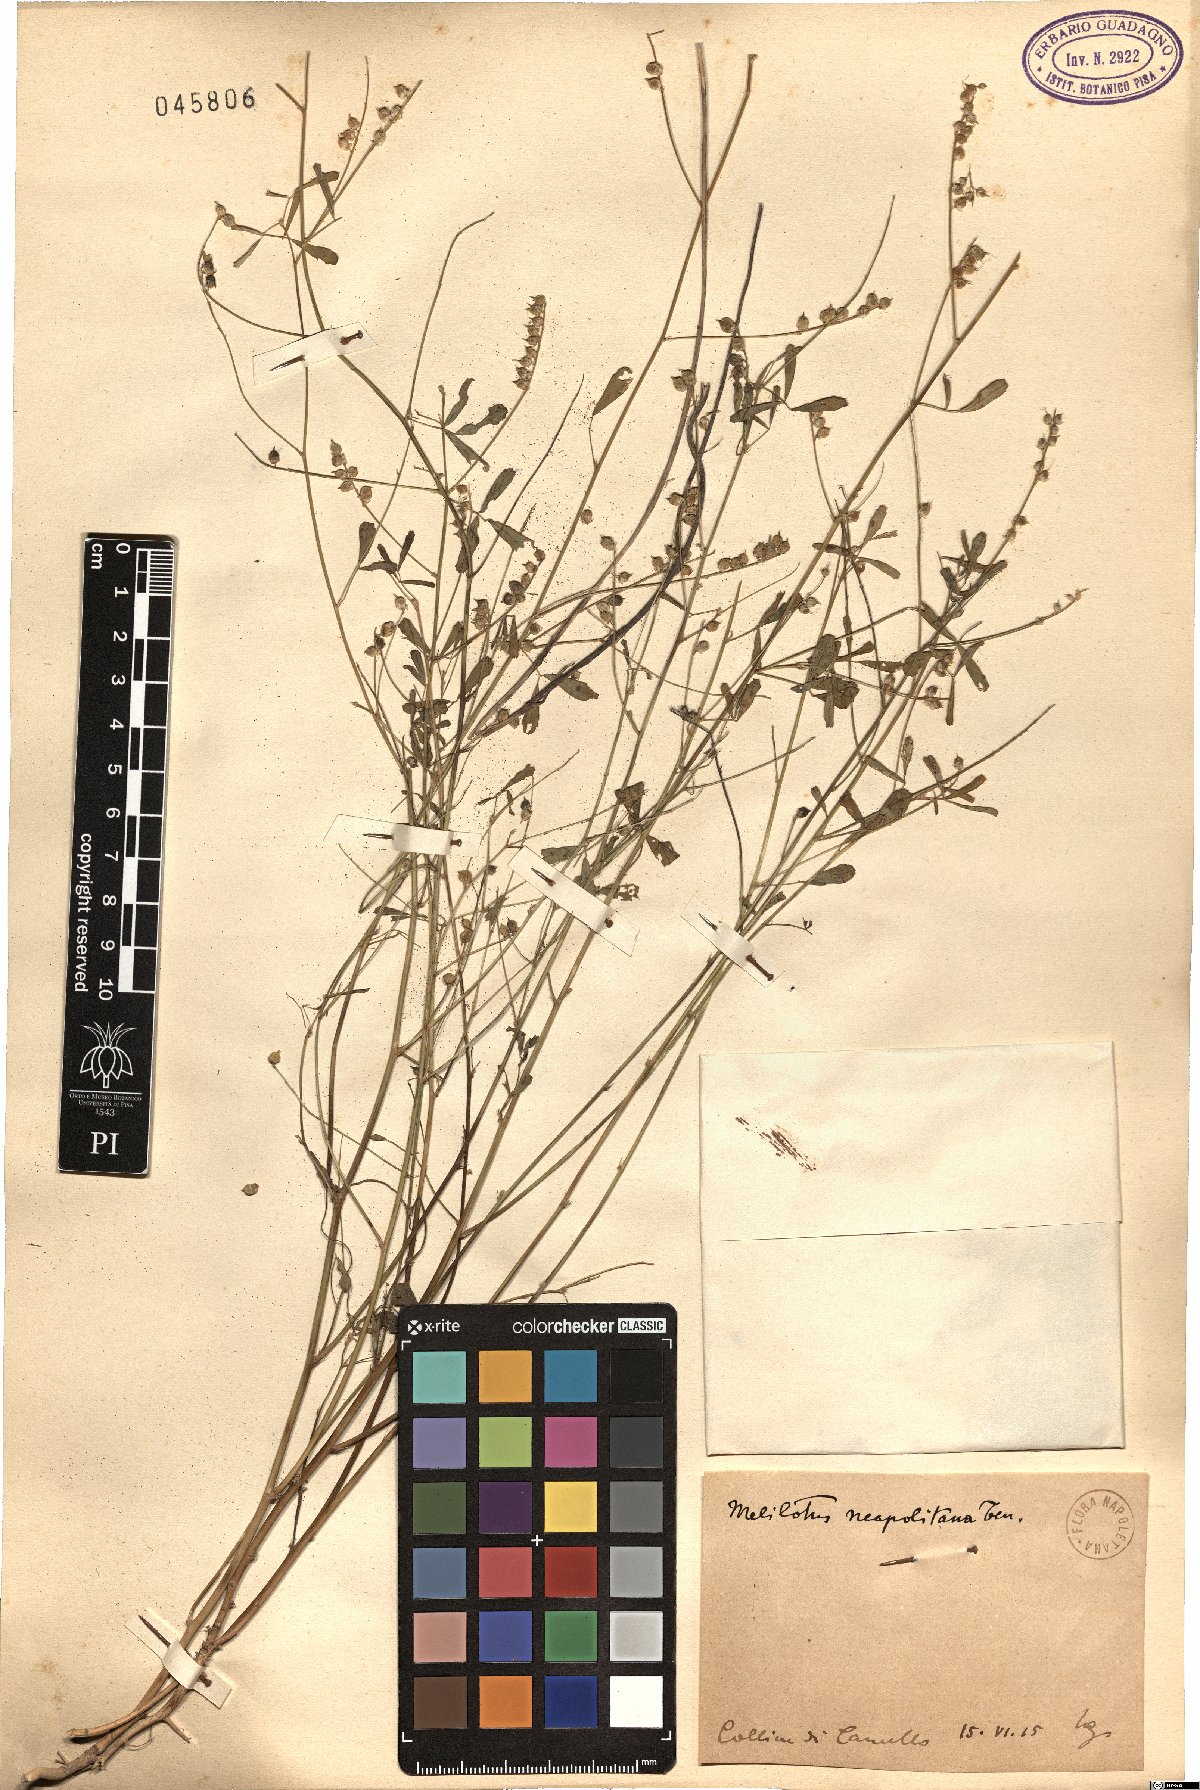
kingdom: Plantae
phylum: Tracheophyta
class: Magnoliopsida
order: Fabales
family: Fabaceae
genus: Melilotus
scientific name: Melilotus neapolitanus
